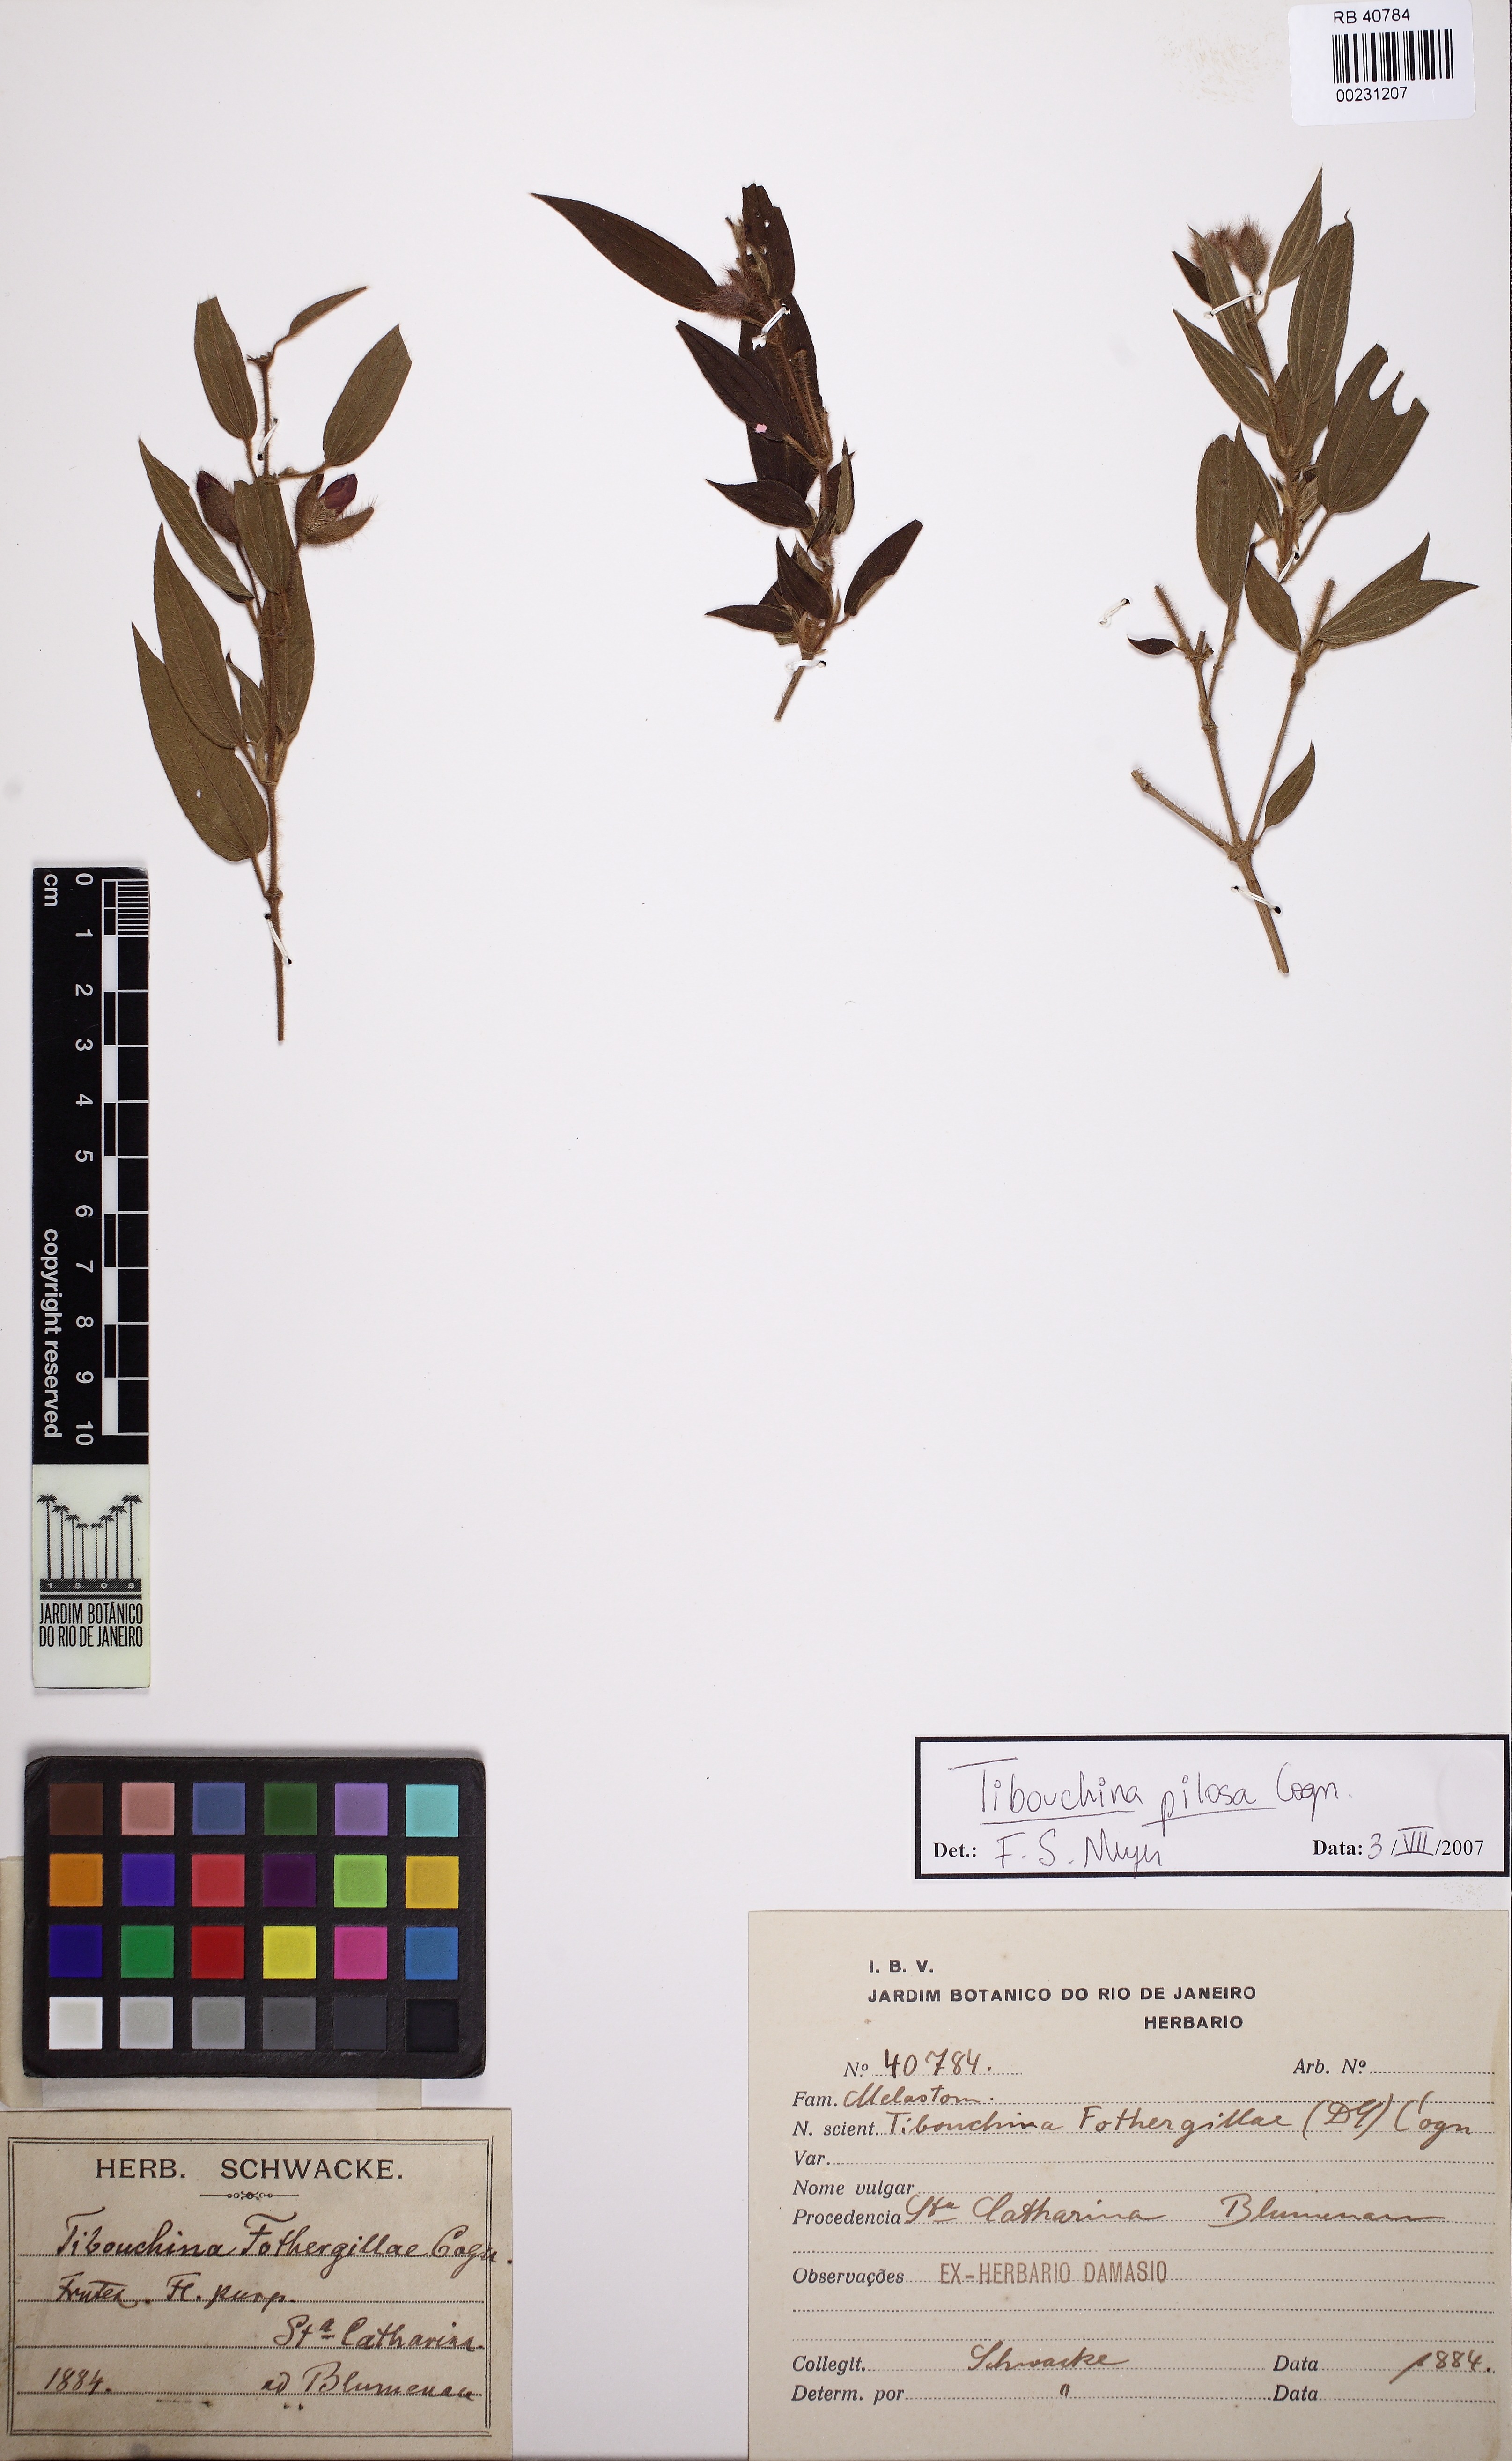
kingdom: Plantae
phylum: Tracheophyta
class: Magnoliopsida
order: Myrtales
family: Melastomataceae
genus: Pleroma
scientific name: Pleroma pilosum
